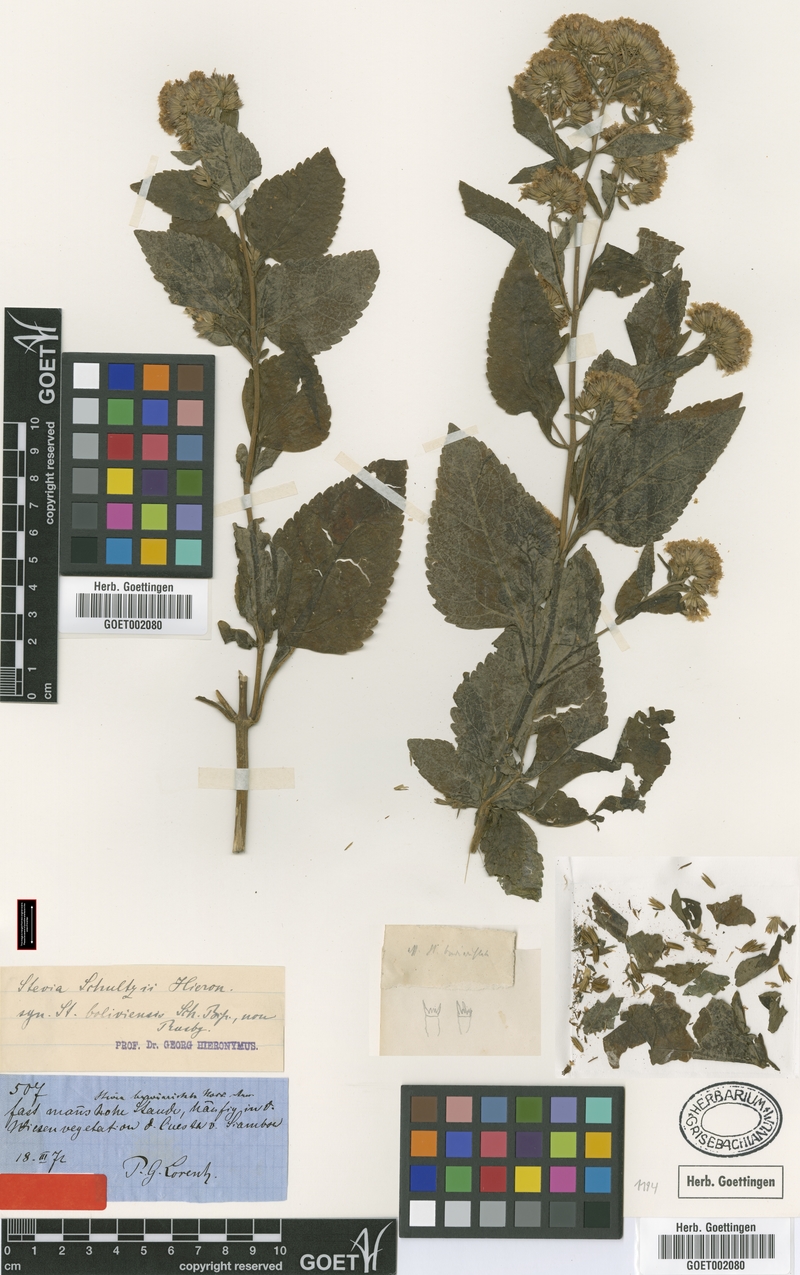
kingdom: Plantae
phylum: Tracheophyta
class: Magnoliopsida
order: Asterales
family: Asteraceae
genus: Stevia
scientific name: Stevia boliviensis
